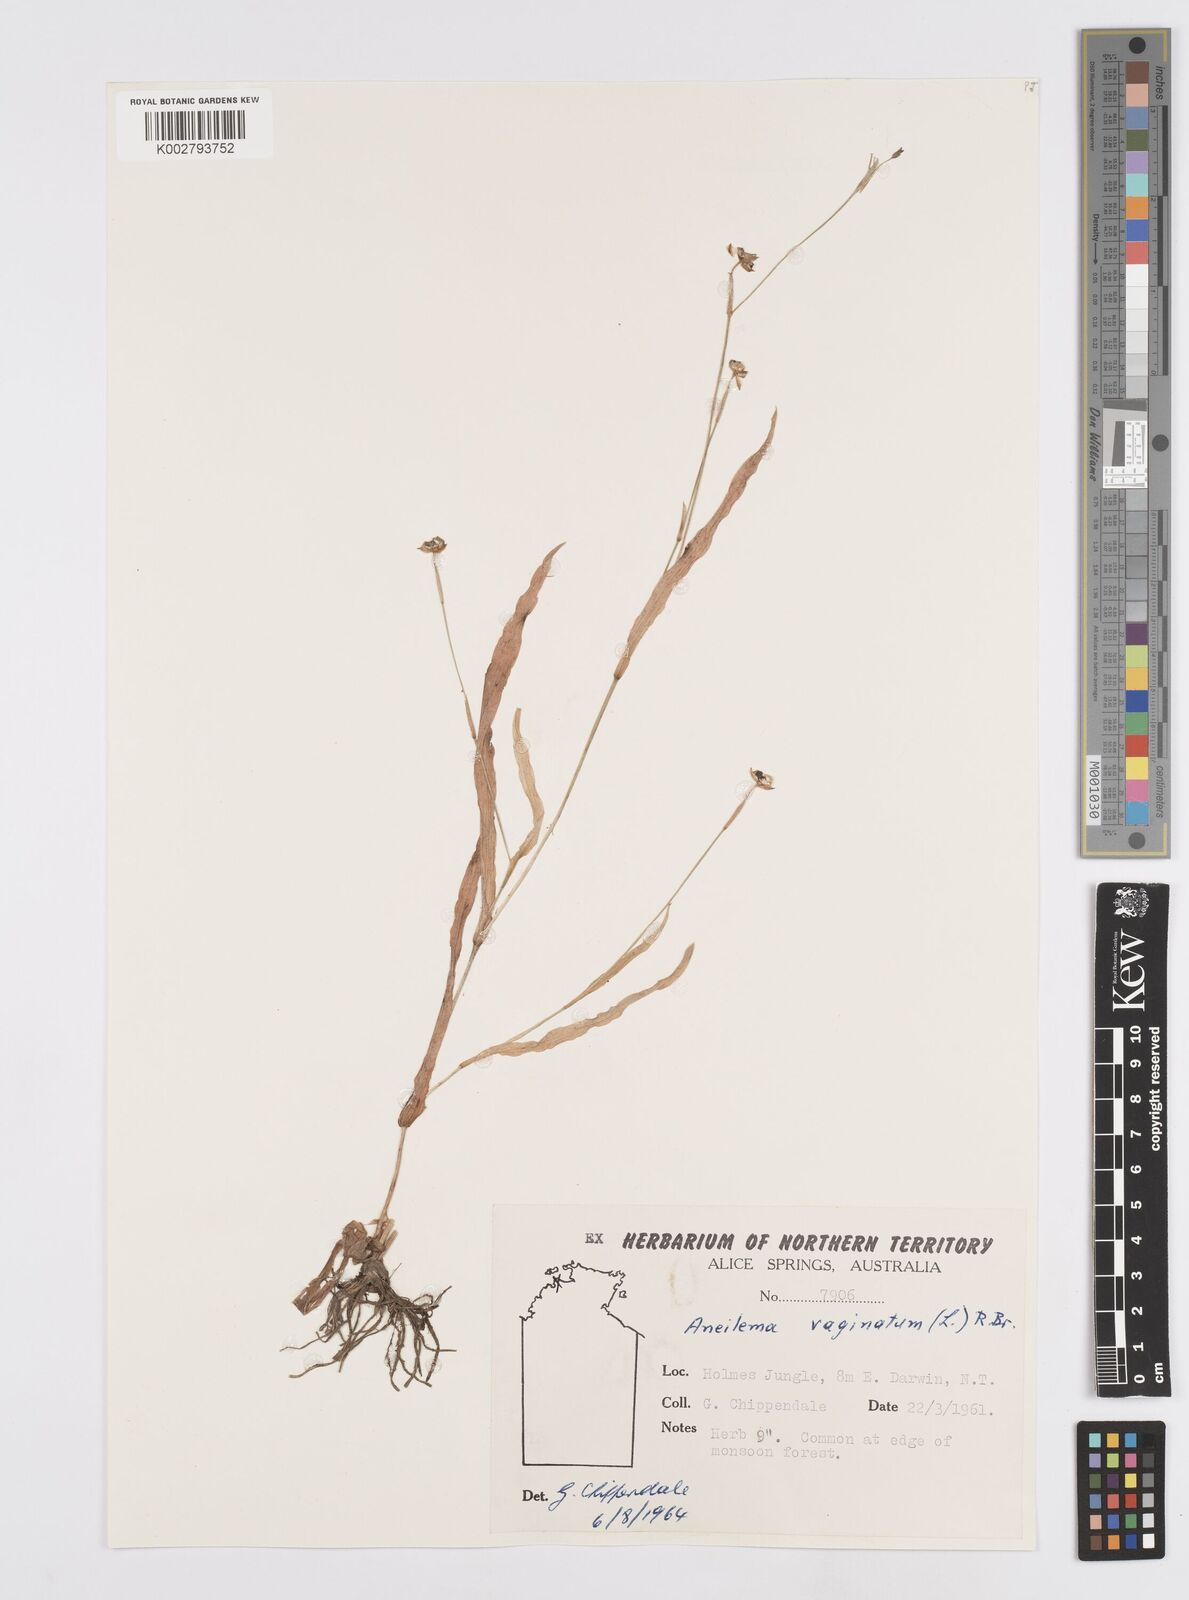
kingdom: Plantae
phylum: Tracheophyta
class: Liliopsida
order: Commelinales
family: Commelinaceae
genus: Murdannia
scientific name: Murdannia vaginata
